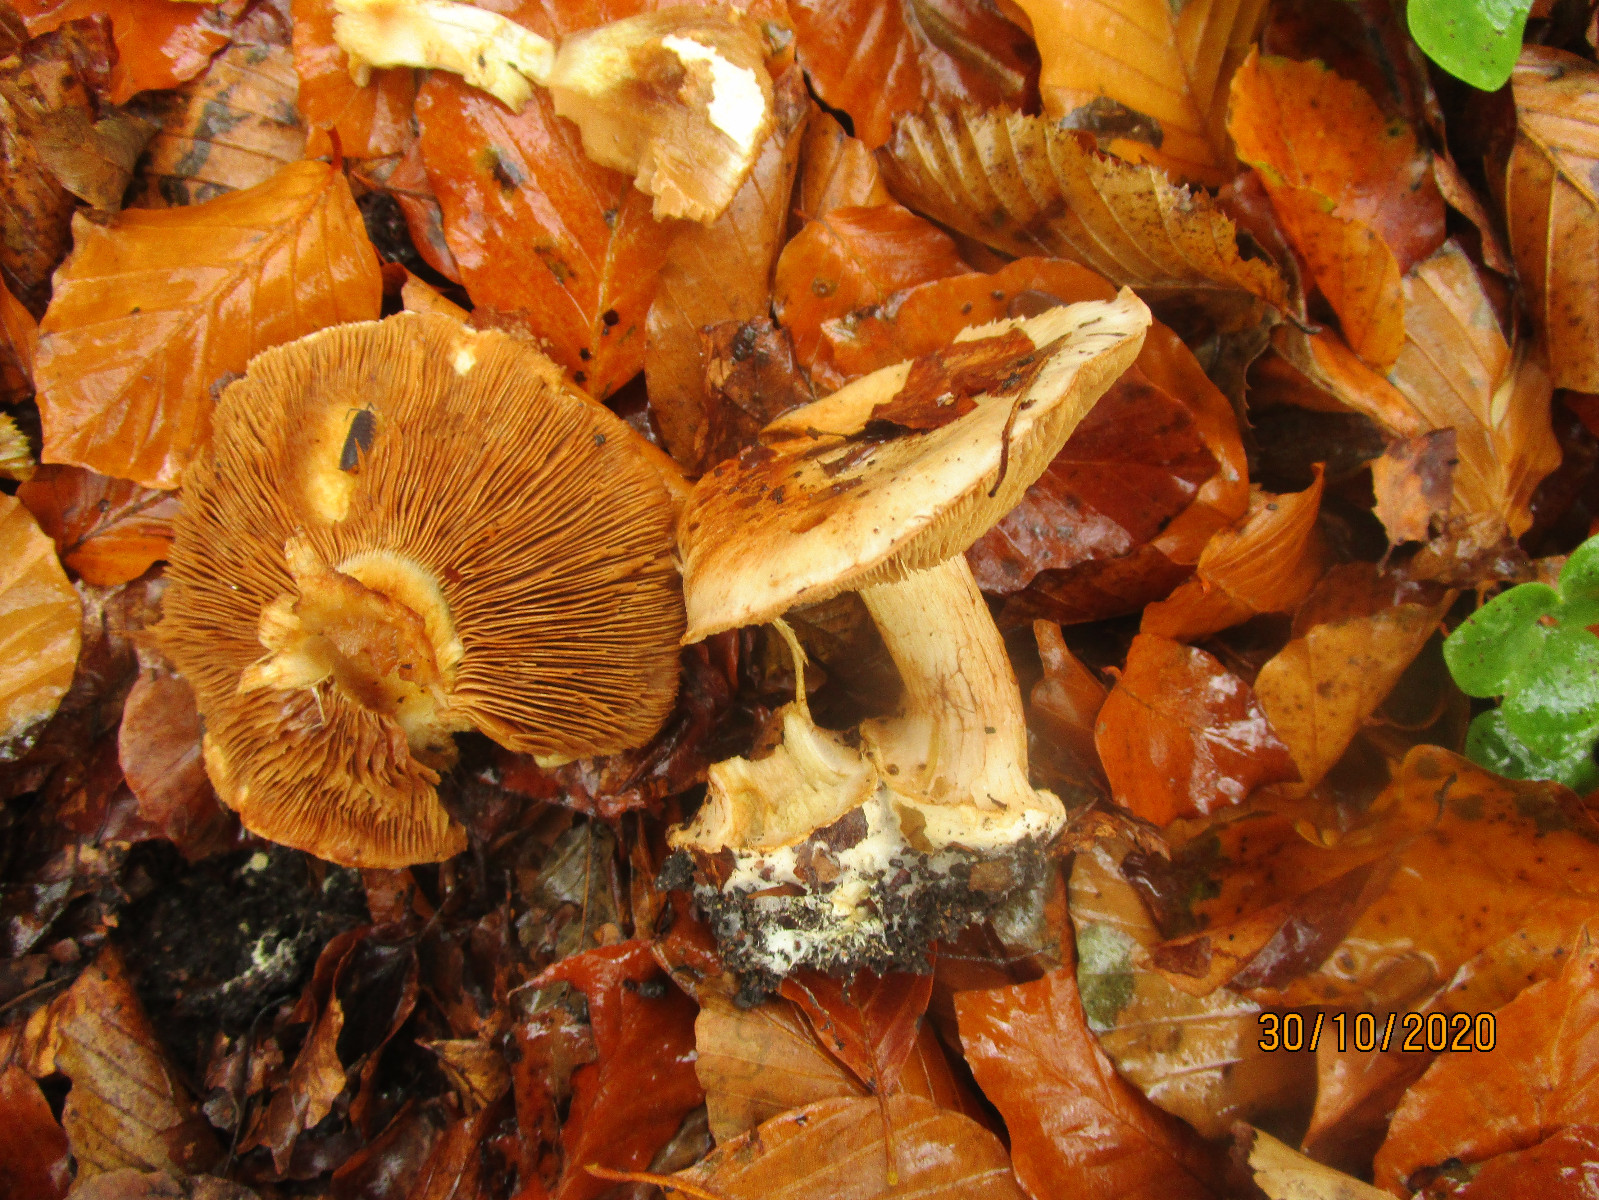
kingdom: Fungi
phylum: Basidiomycota
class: Agaricomycetes
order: Agaricales
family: Cortinariaceae
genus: Cortinarius
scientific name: Cortinarius
